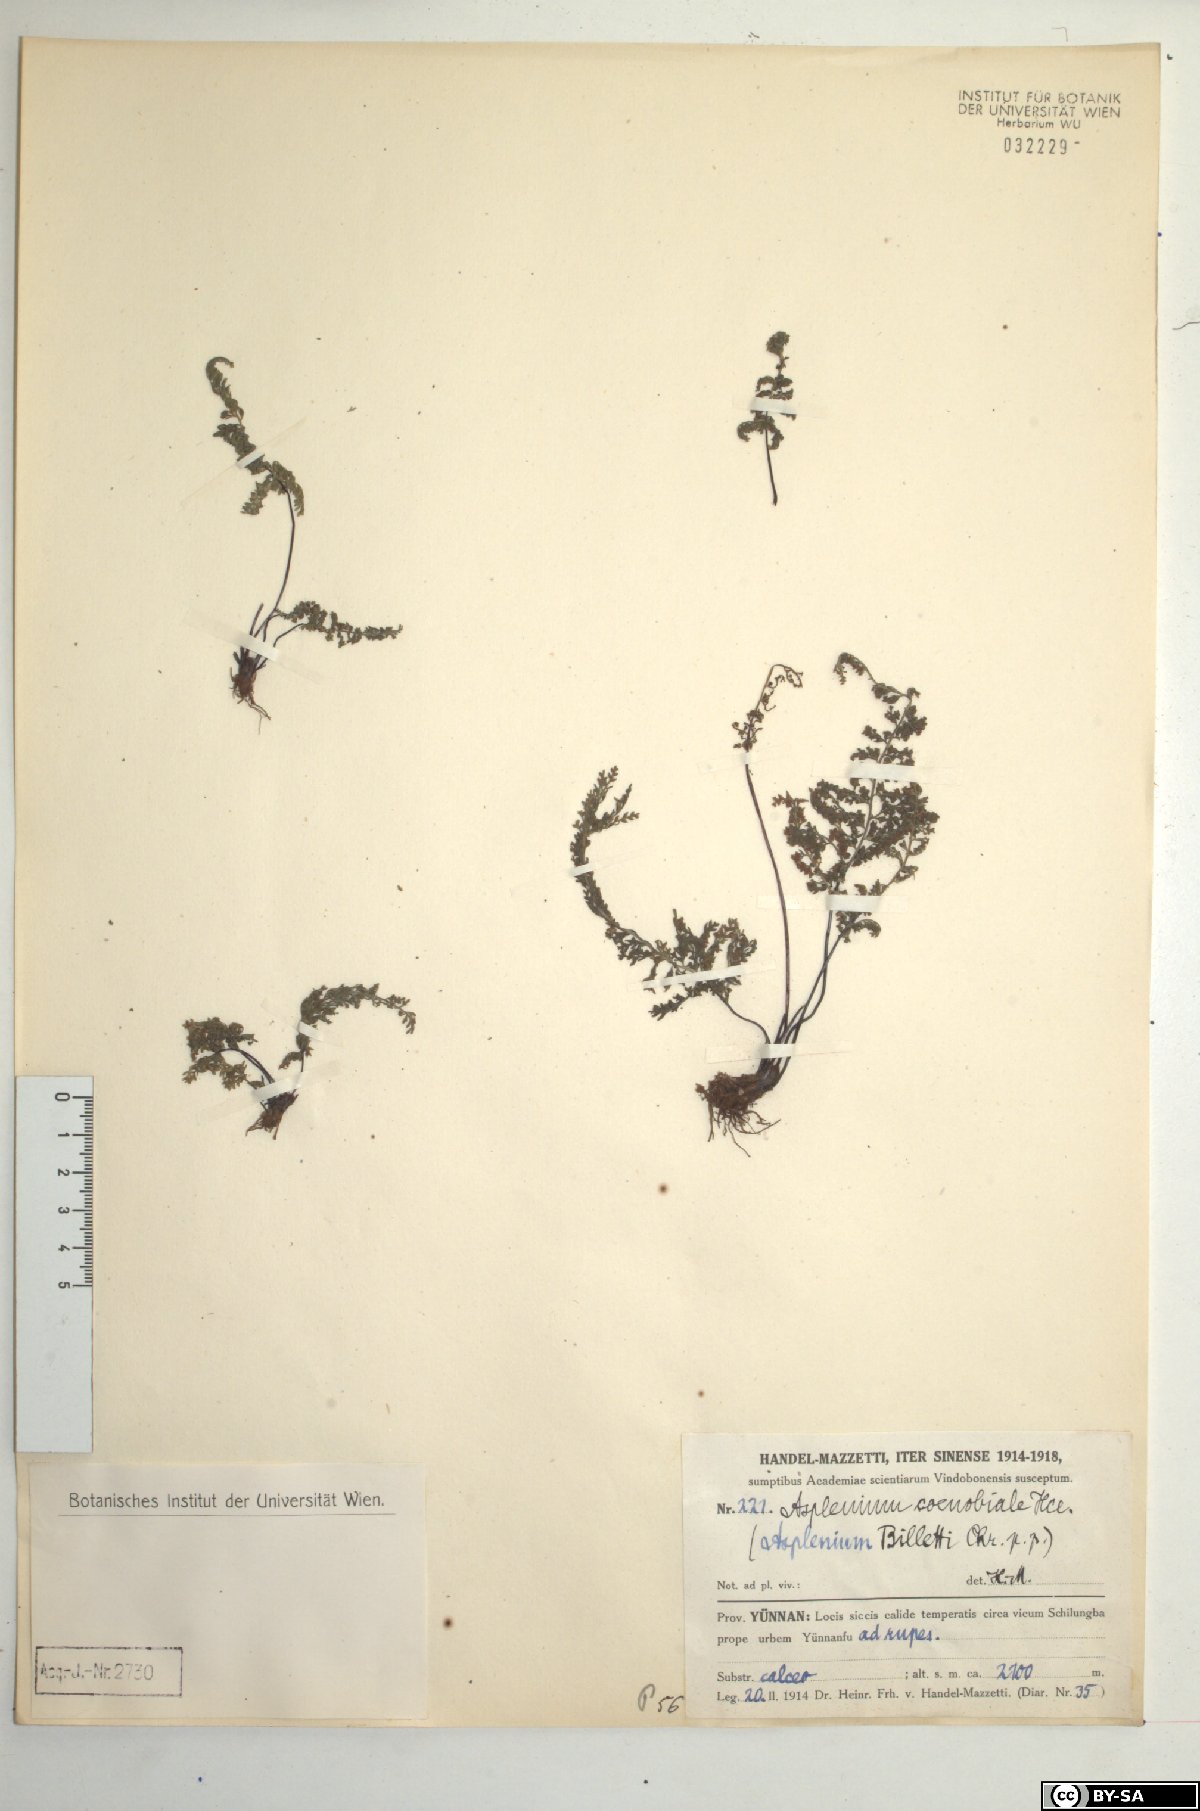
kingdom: Plantae
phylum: Tracheophyta
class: Polypodiopsida
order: Polypodiales
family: Aspleniaceae
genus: Asplenium
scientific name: Asplenium coenobiale
